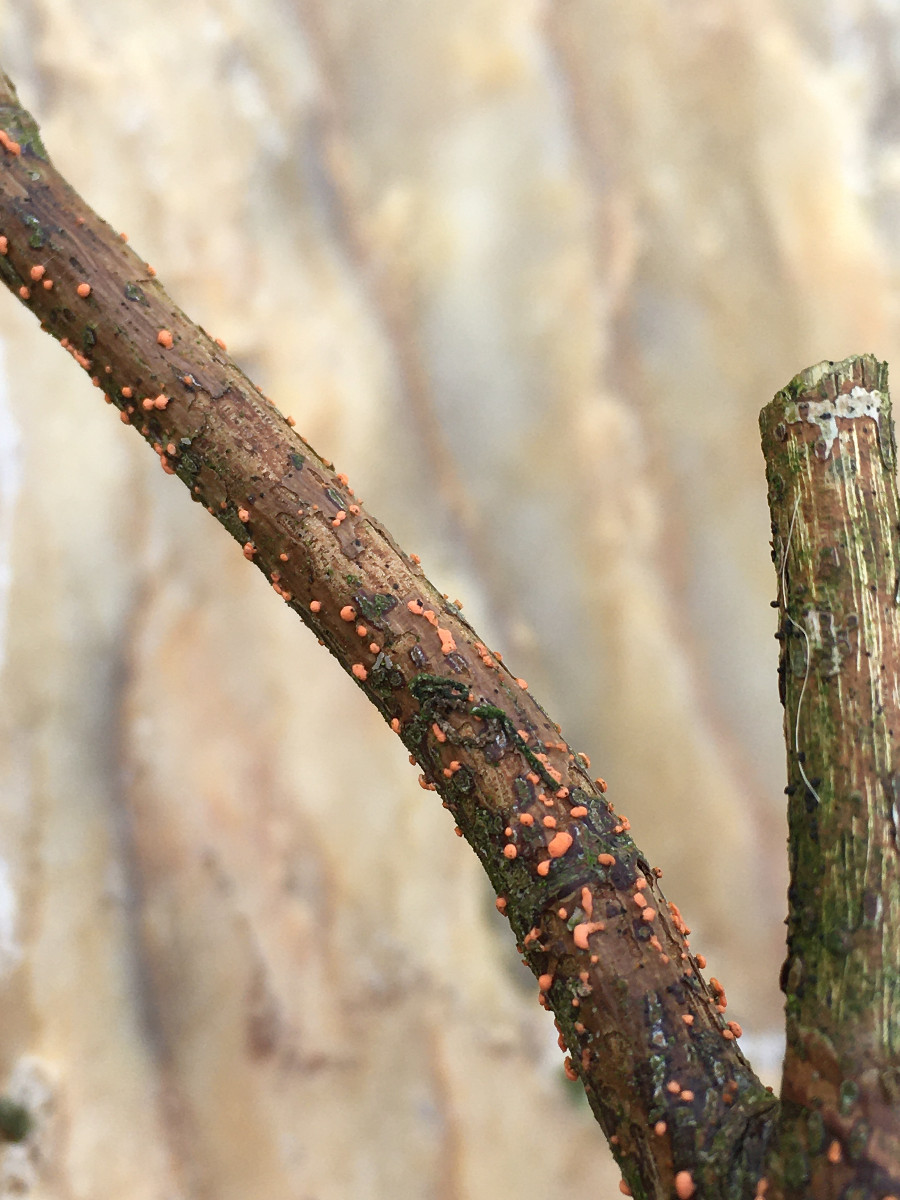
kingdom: Fungi
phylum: Ascomycota
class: Sordariomycetes
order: Hypocreales
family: Nectriaceae
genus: Nectria
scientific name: Nectria cinnabarina
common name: almindelig cinnobersvamp
